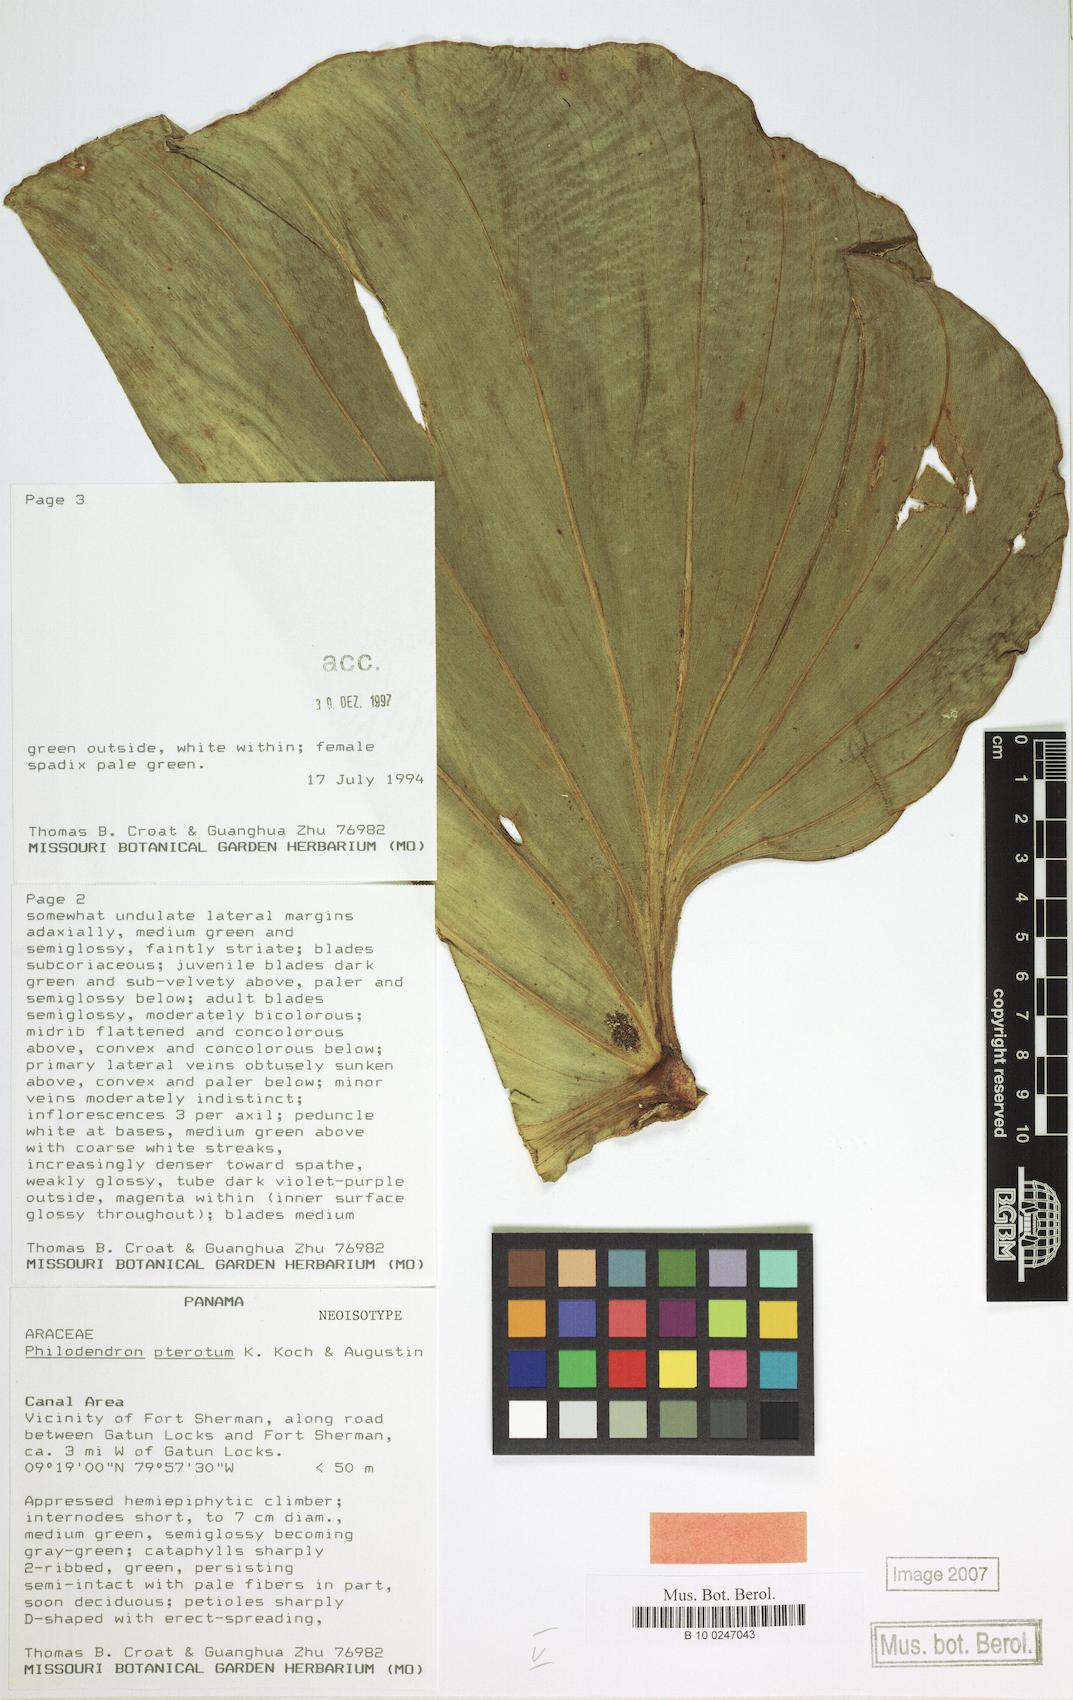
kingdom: Plantae
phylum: Tracheophyta
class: Liliopsida
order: Alismatales
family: Araceae
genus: Philodendron
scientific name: Philodendron pterotum
